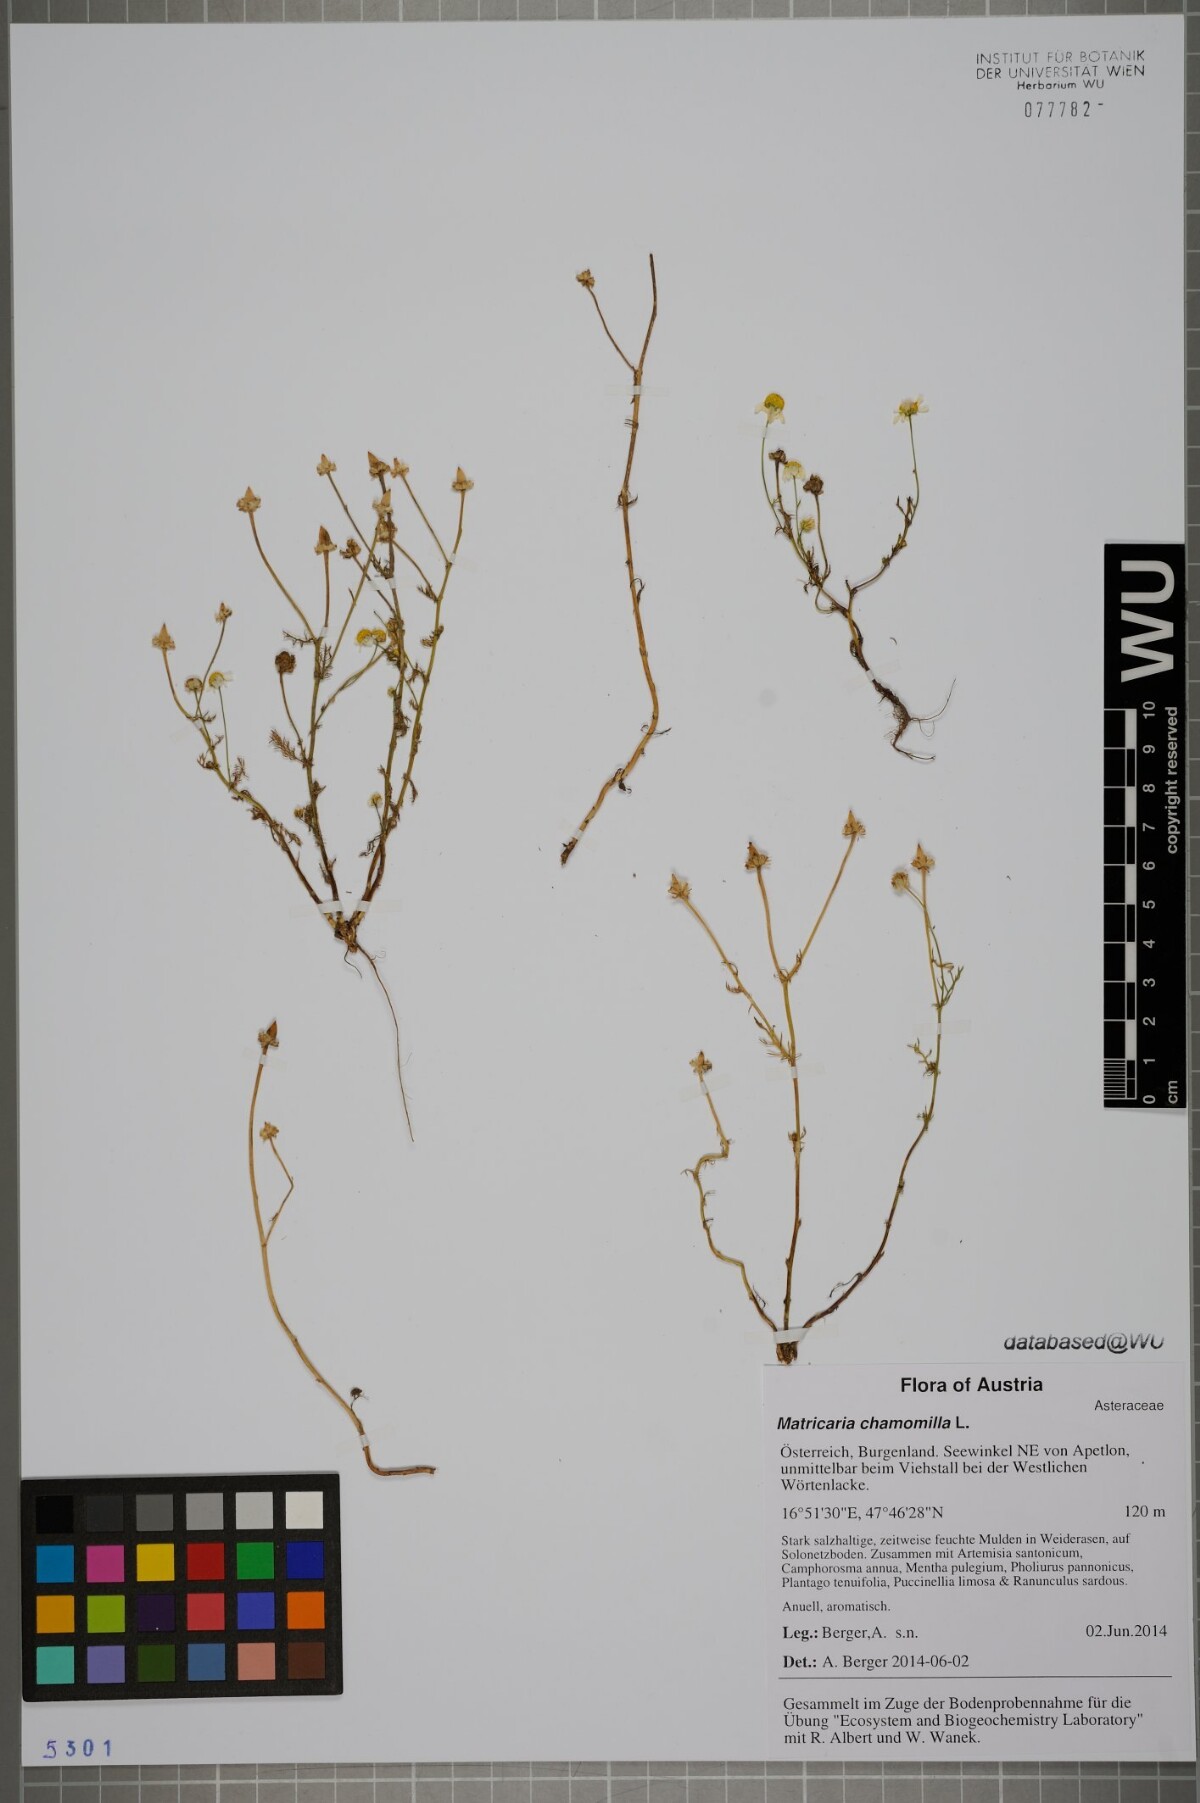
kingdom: Plantae
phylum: Tracheophyta
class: Magnoliopsida
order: Asterales
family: Asteraceae
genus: Matricaria
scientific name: Matricaria chamomilla
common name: Scented mayweed
